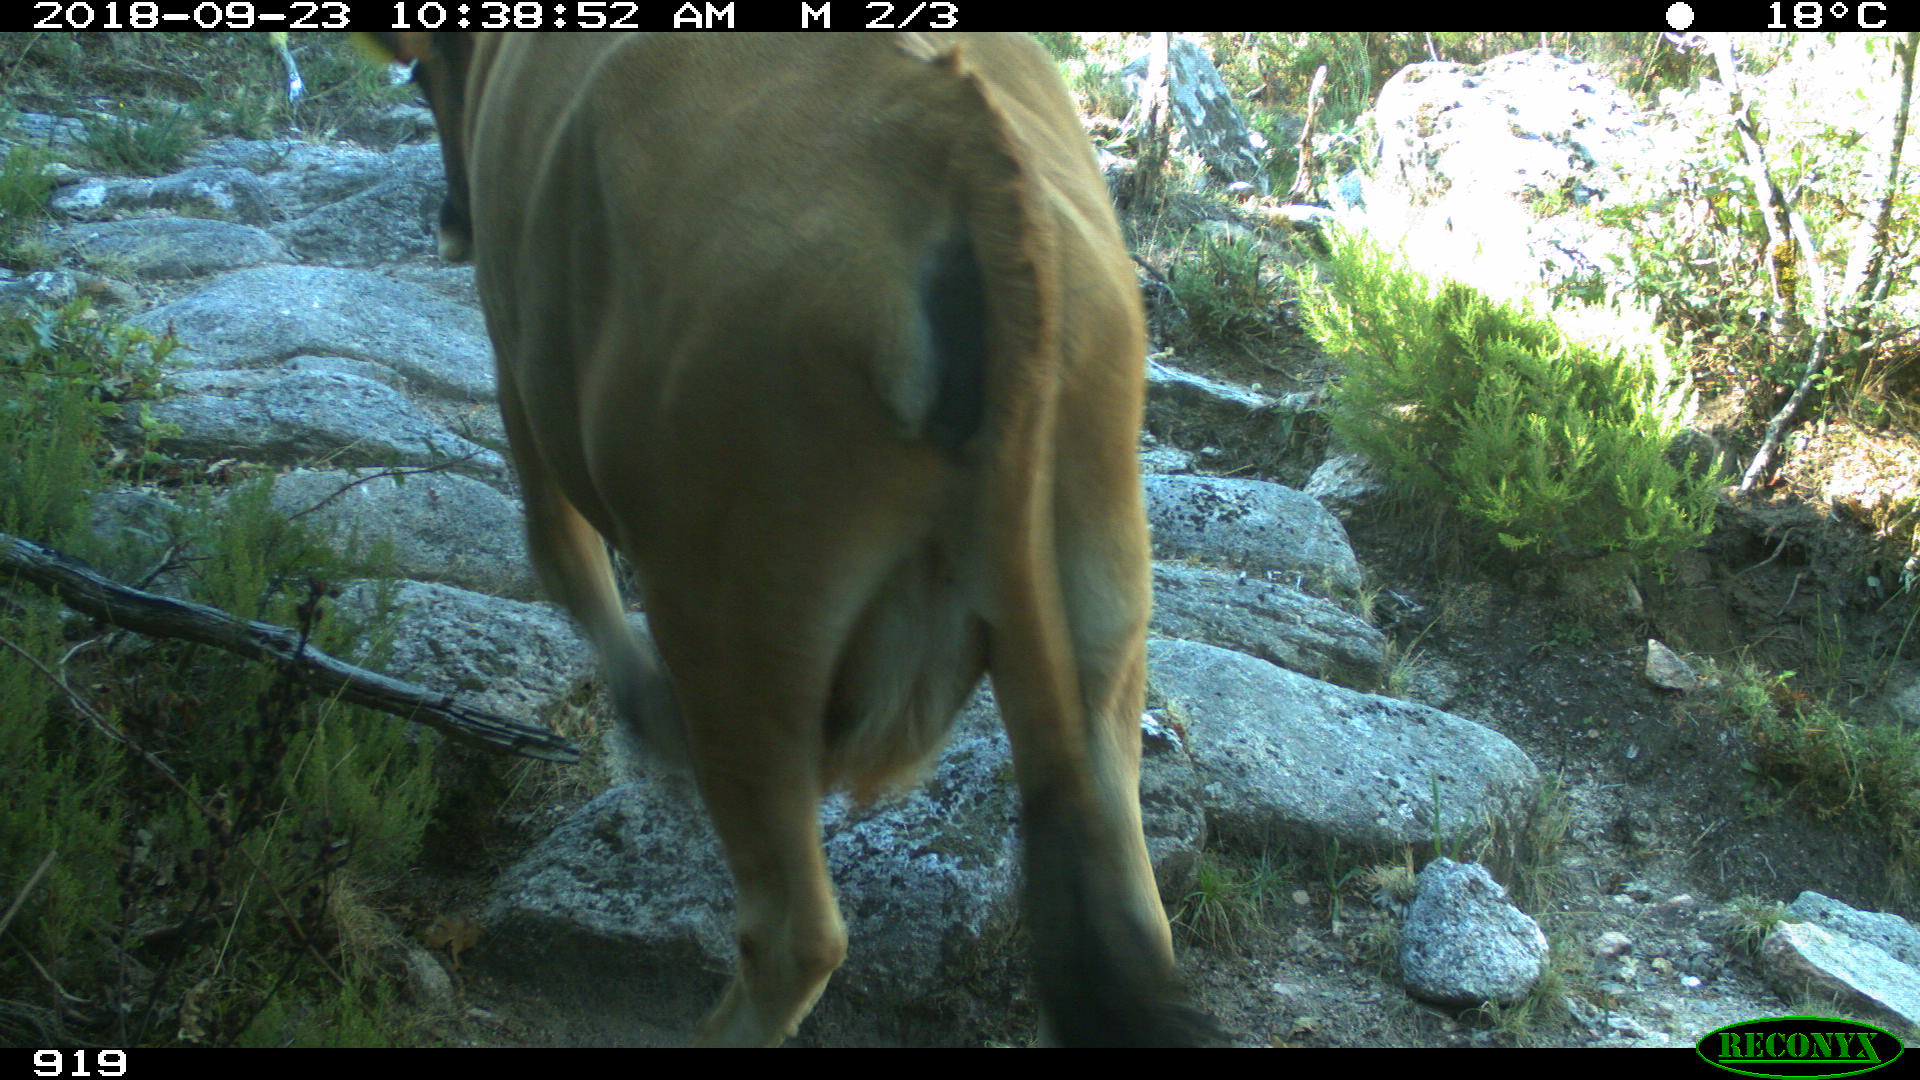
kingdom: Animalia
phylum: Chordata
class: Mammalia
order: Artiodactyla
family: Bovidae
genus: Bos
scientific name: Bos taurus
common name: Domesticated cattle
